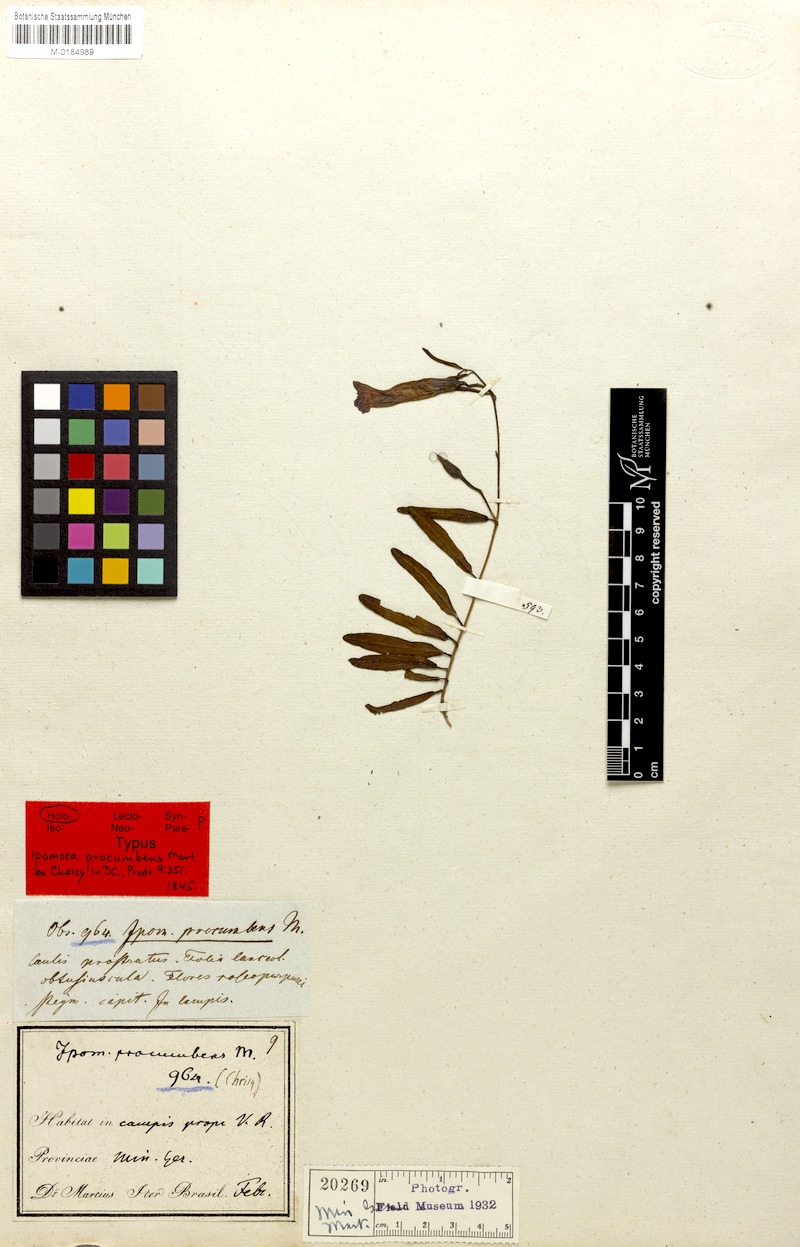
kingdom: Plantae
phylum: Tracheophyta
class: Magnoliopsida
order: Solanales
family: Convolvulaceae
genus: Ipomoea
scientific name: Ipomoea procumbens
